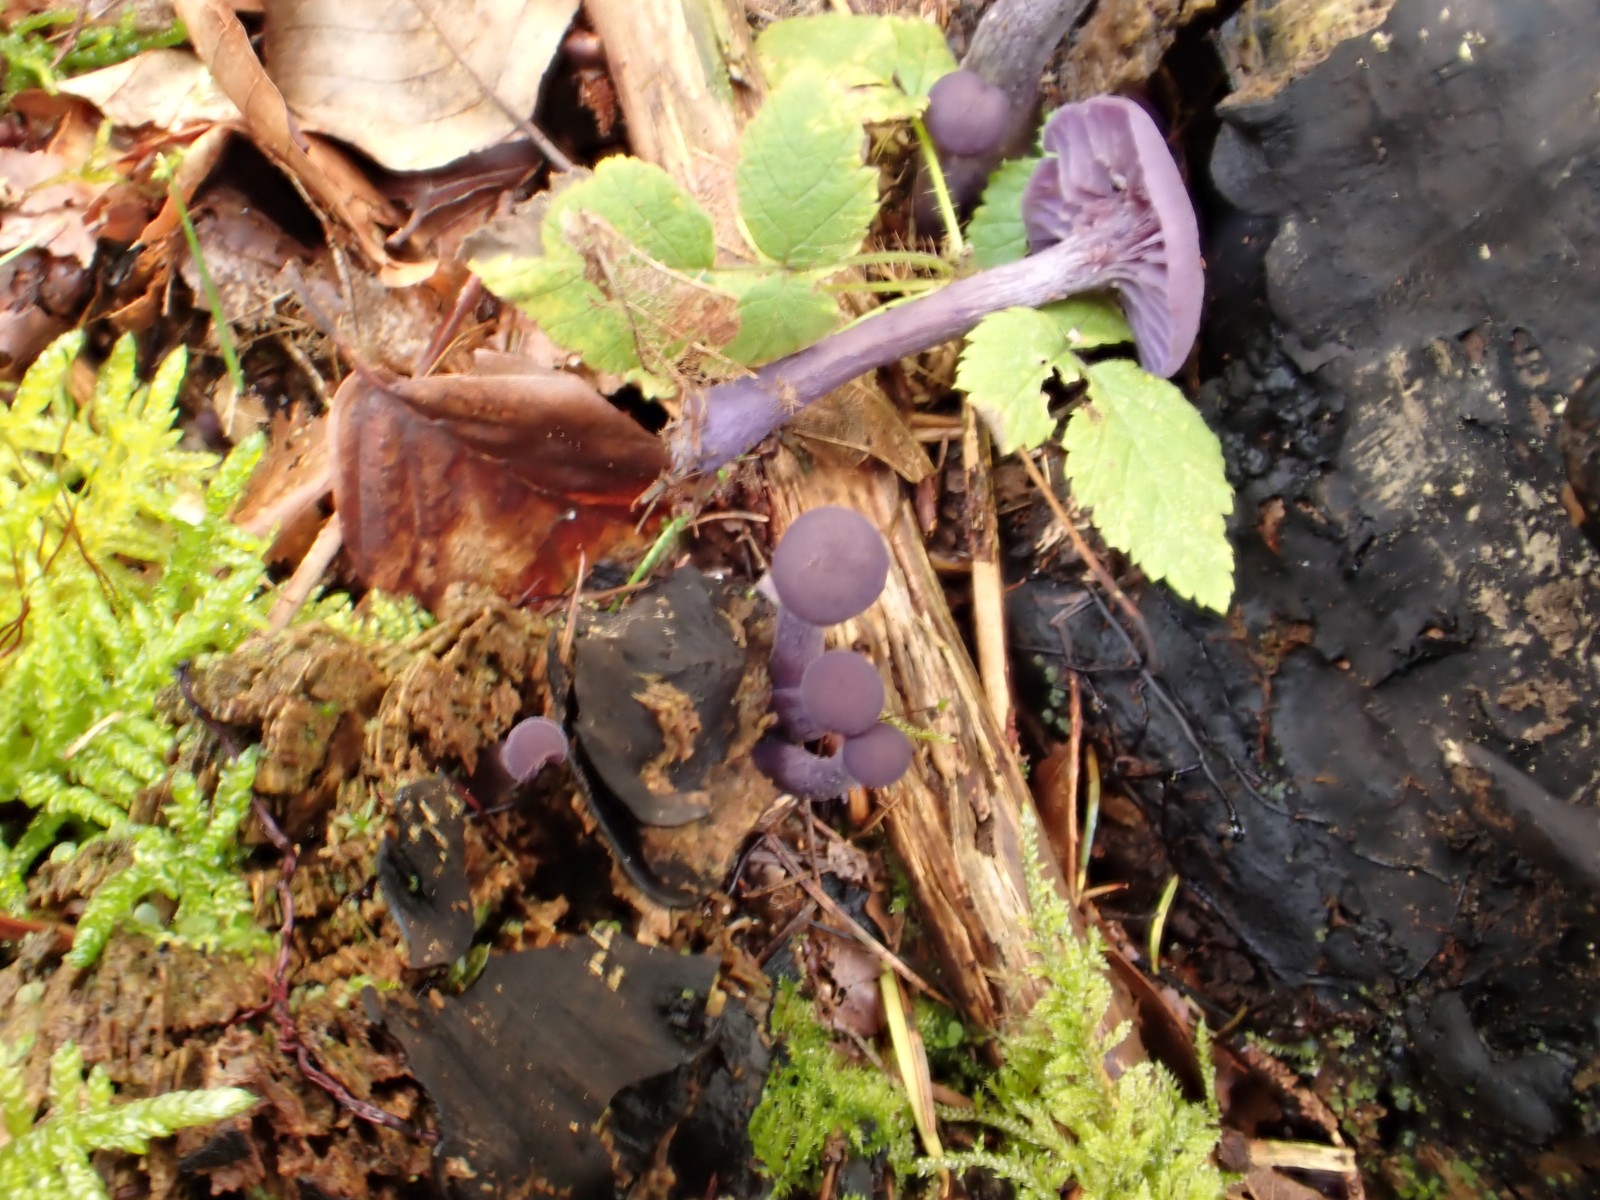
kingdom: Fungi
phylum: Basidiomycota
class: Agaricomycetes
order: Agaricales
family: Hydnangiaceae
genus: Laccaria
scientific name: Laccaria amethystina
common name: violet ametysthat
